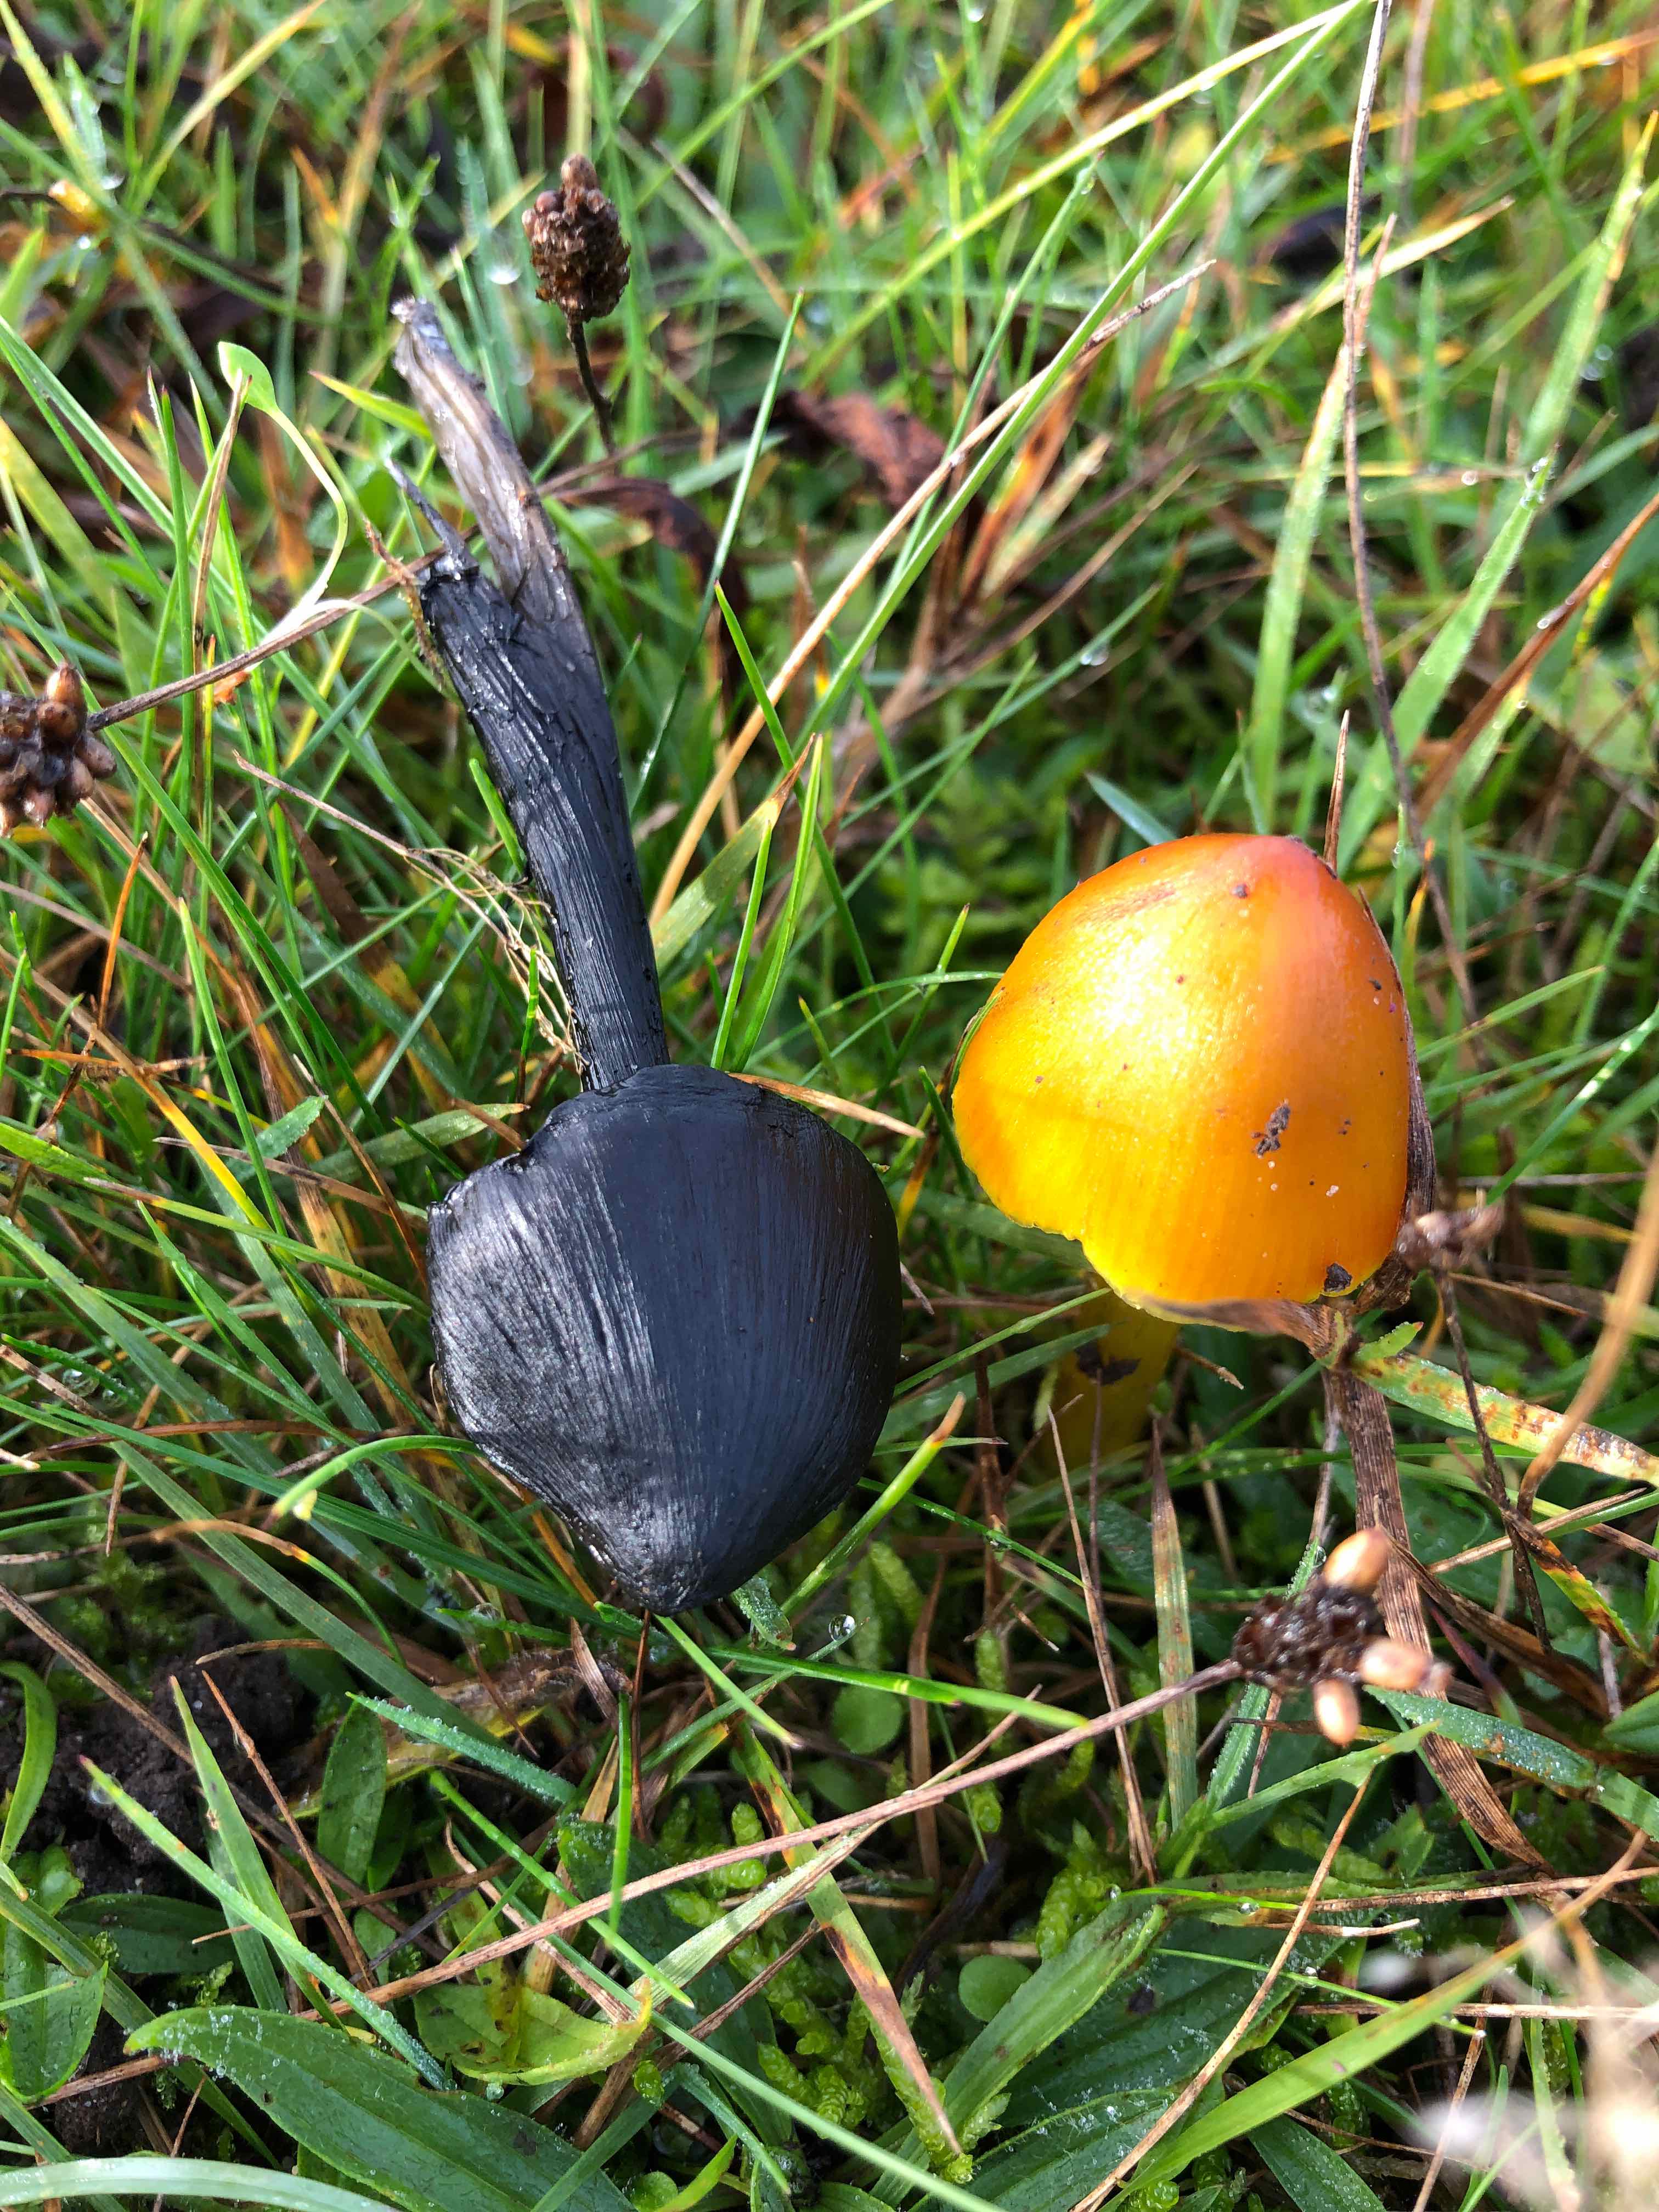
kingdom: Fungi
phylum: Basidiomycota
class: Agaricomycetes
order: Agaricales
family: Hygrophoraceae
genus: Hygrocybe
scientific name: Hygrocybe conica
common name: kegle-vokshat
